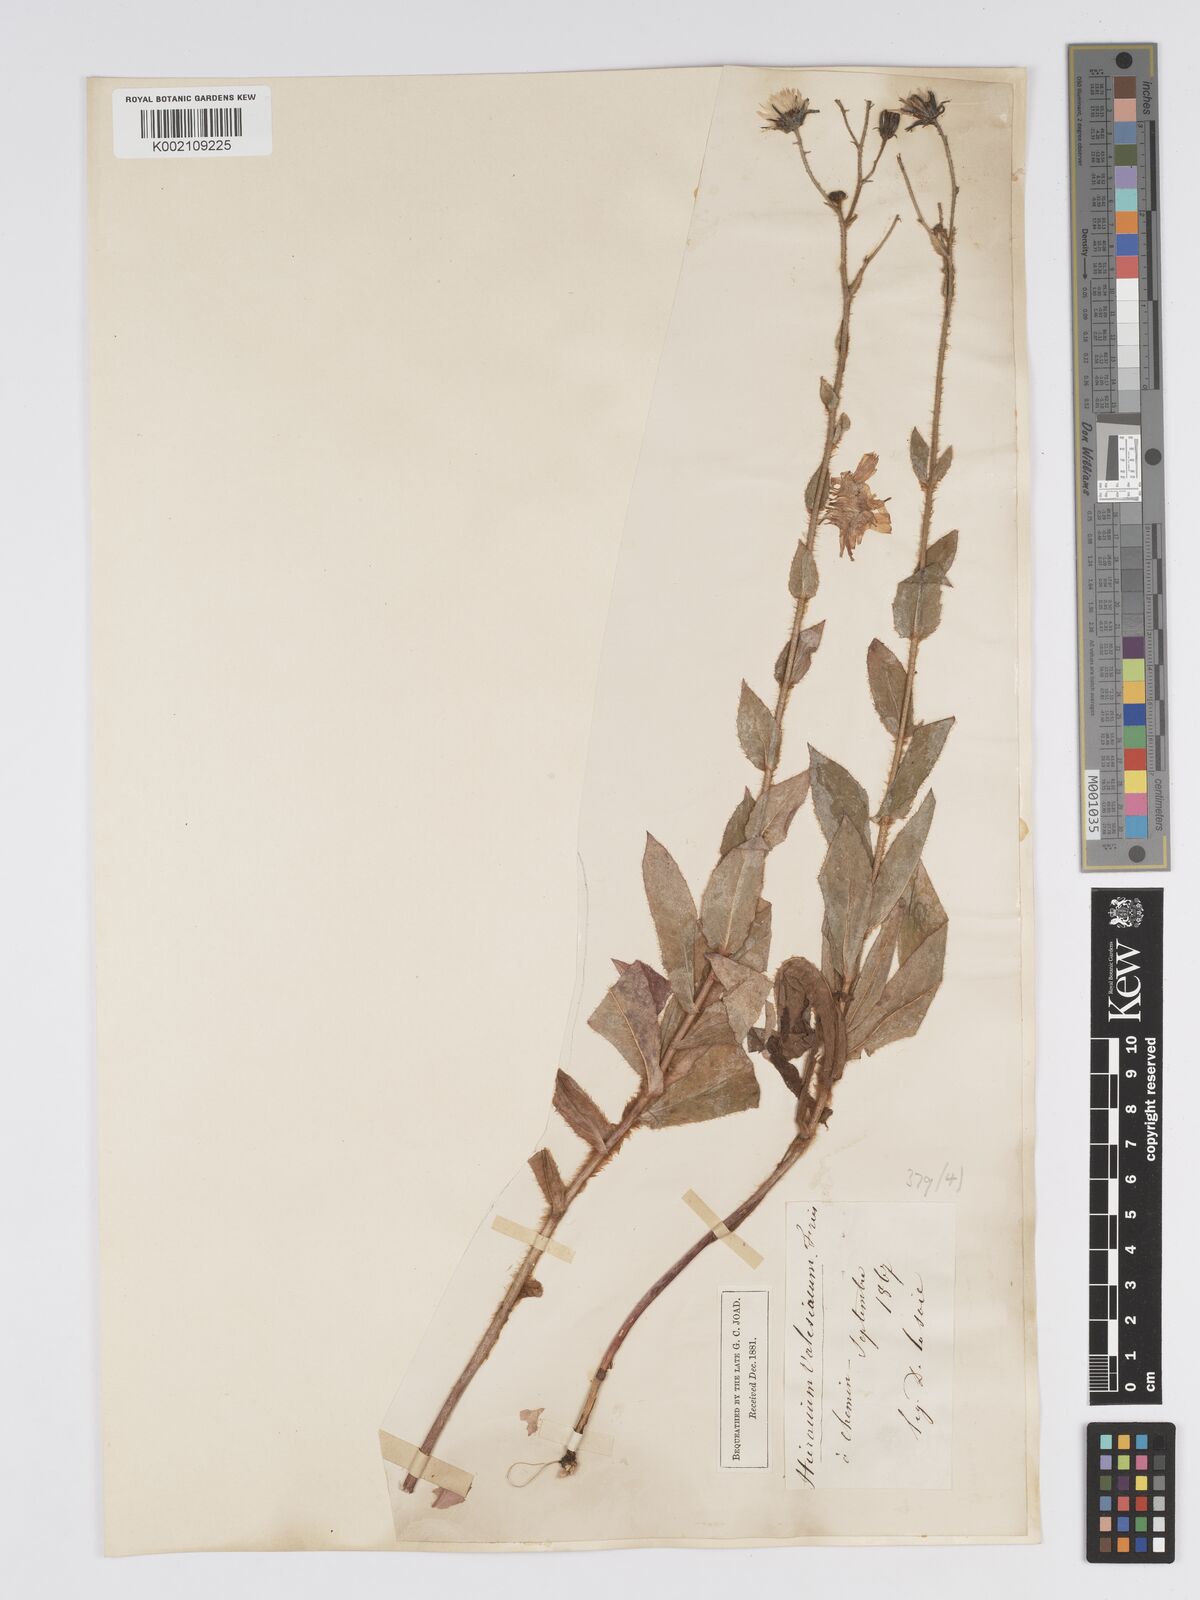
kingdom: Plantae
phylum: Tracheophyta
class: Magnoliopsida
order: Asterales
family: Asteraceae
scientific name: Asteraceae
